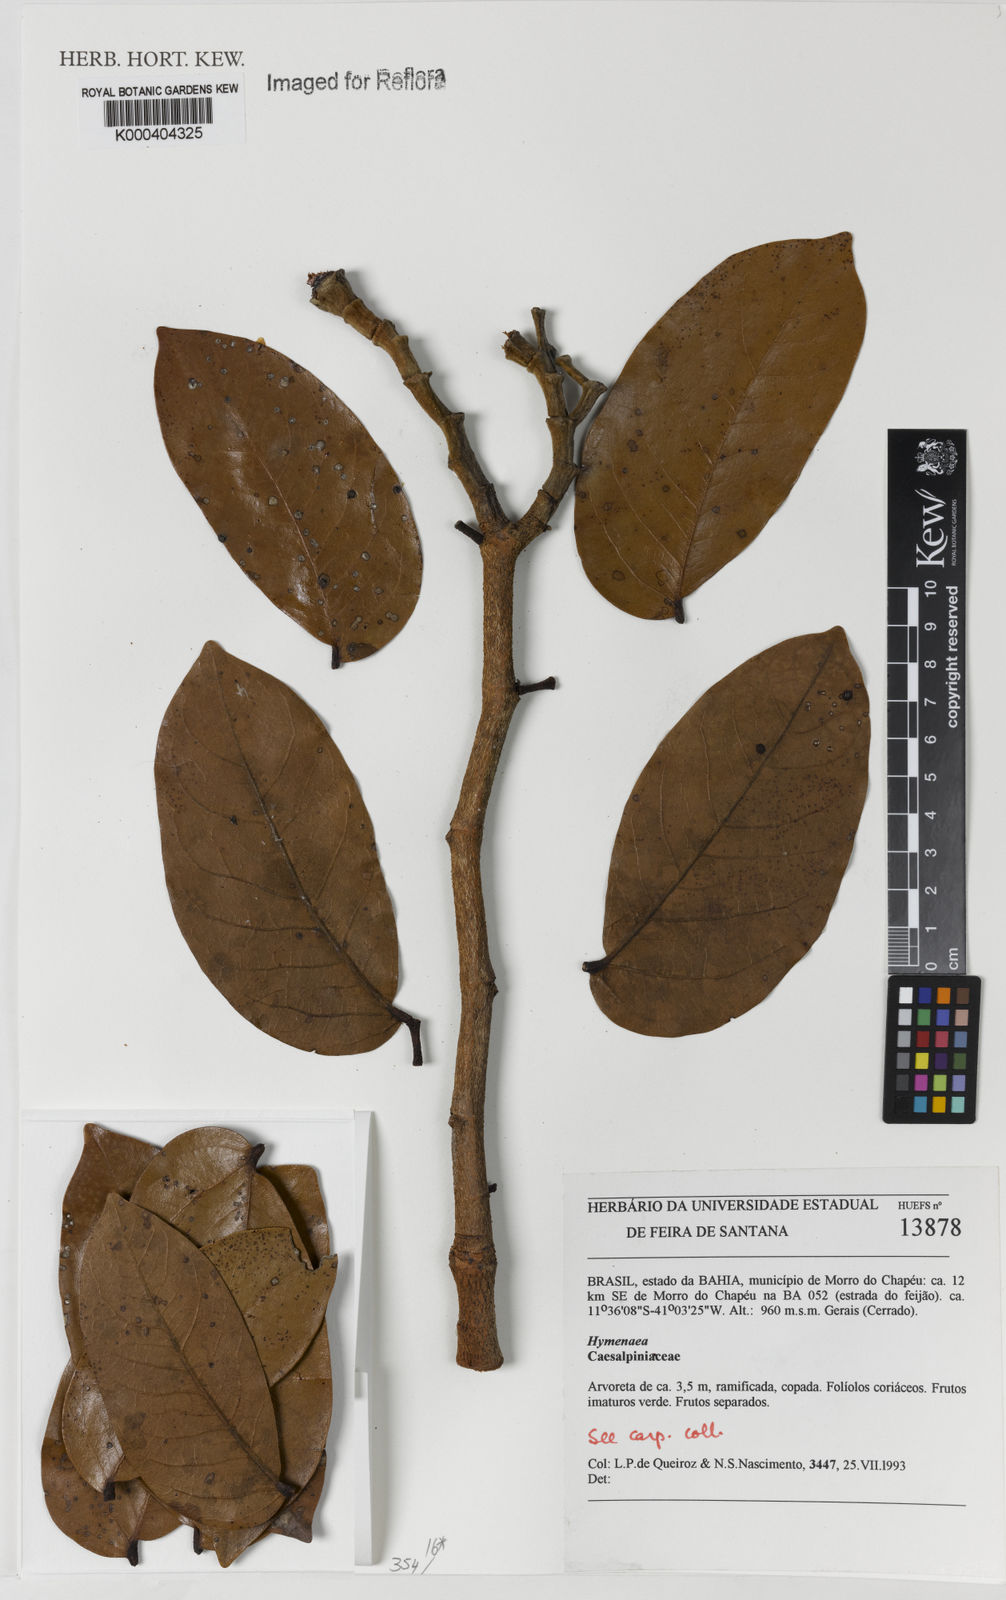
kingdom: Plantae
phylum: Tracheophyta
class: Magnoliopsida
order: Fabales
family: Fabaceae
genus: Hymenaea
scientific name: Hymenaea
